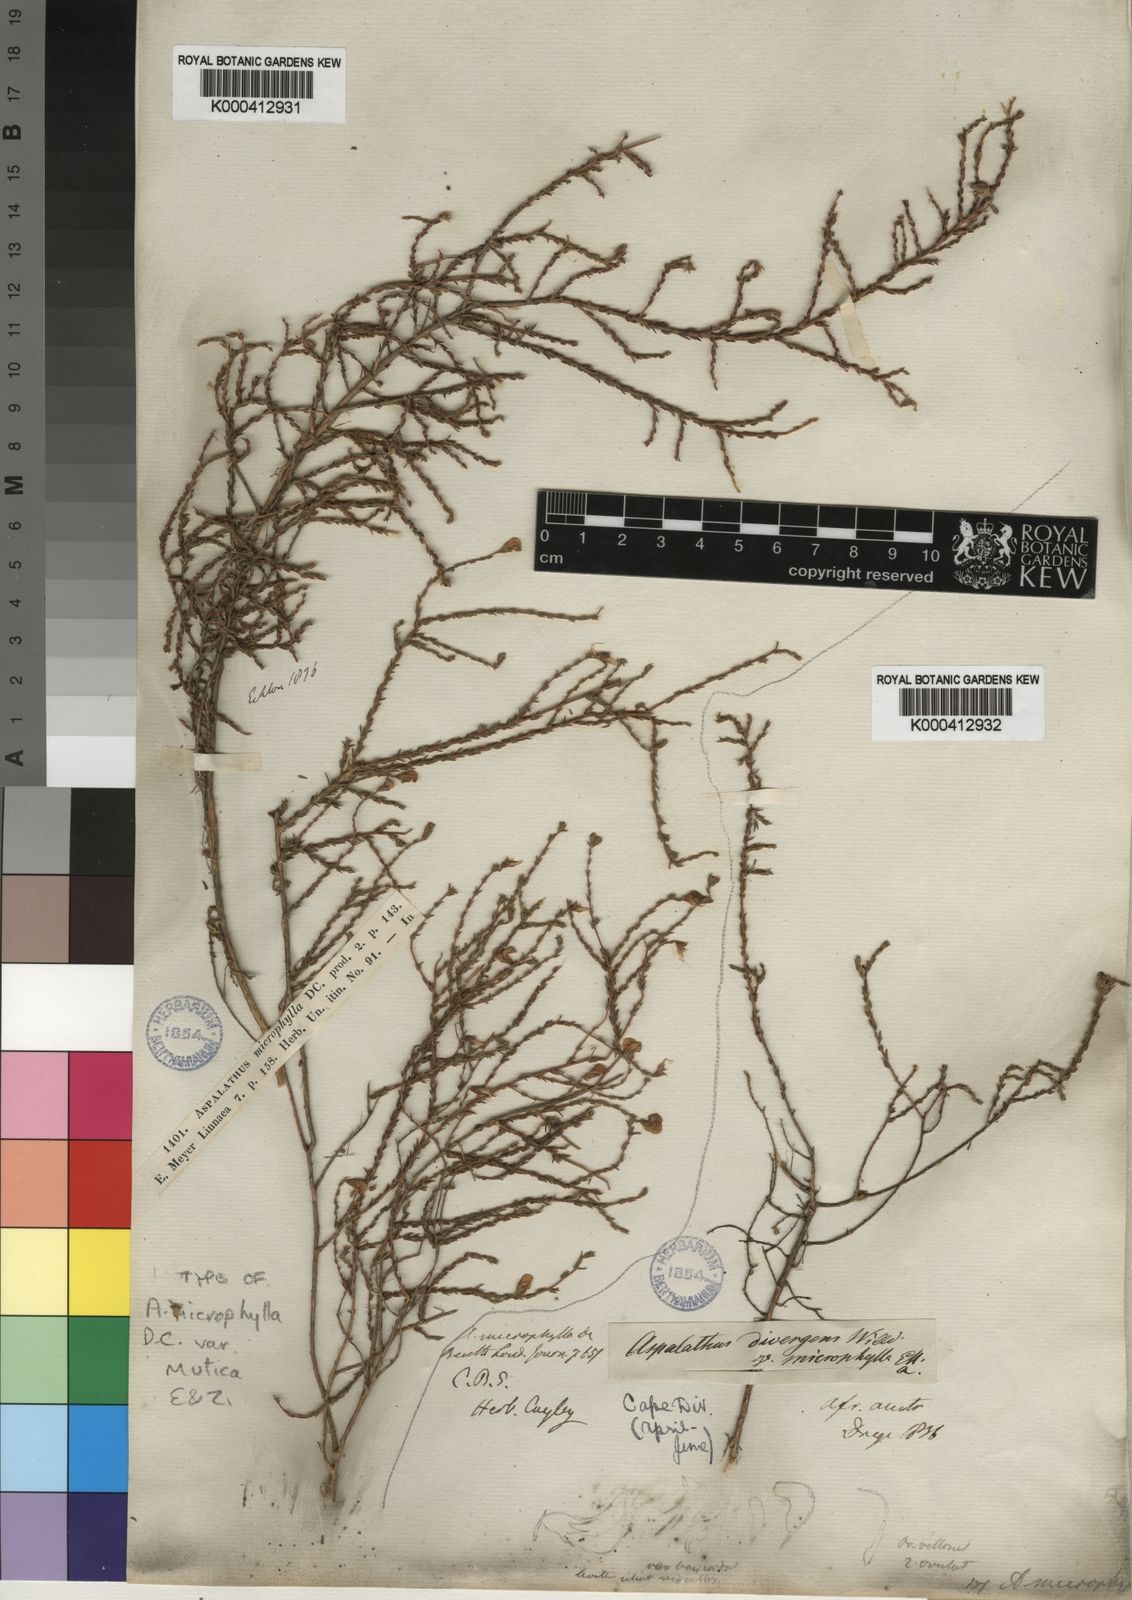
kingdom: Plantae
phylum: Tracheophyta
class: Magnoliopsida
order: Fabales
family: Fabaceae
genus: Aspalathus
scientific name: Aspalathus microphylla
